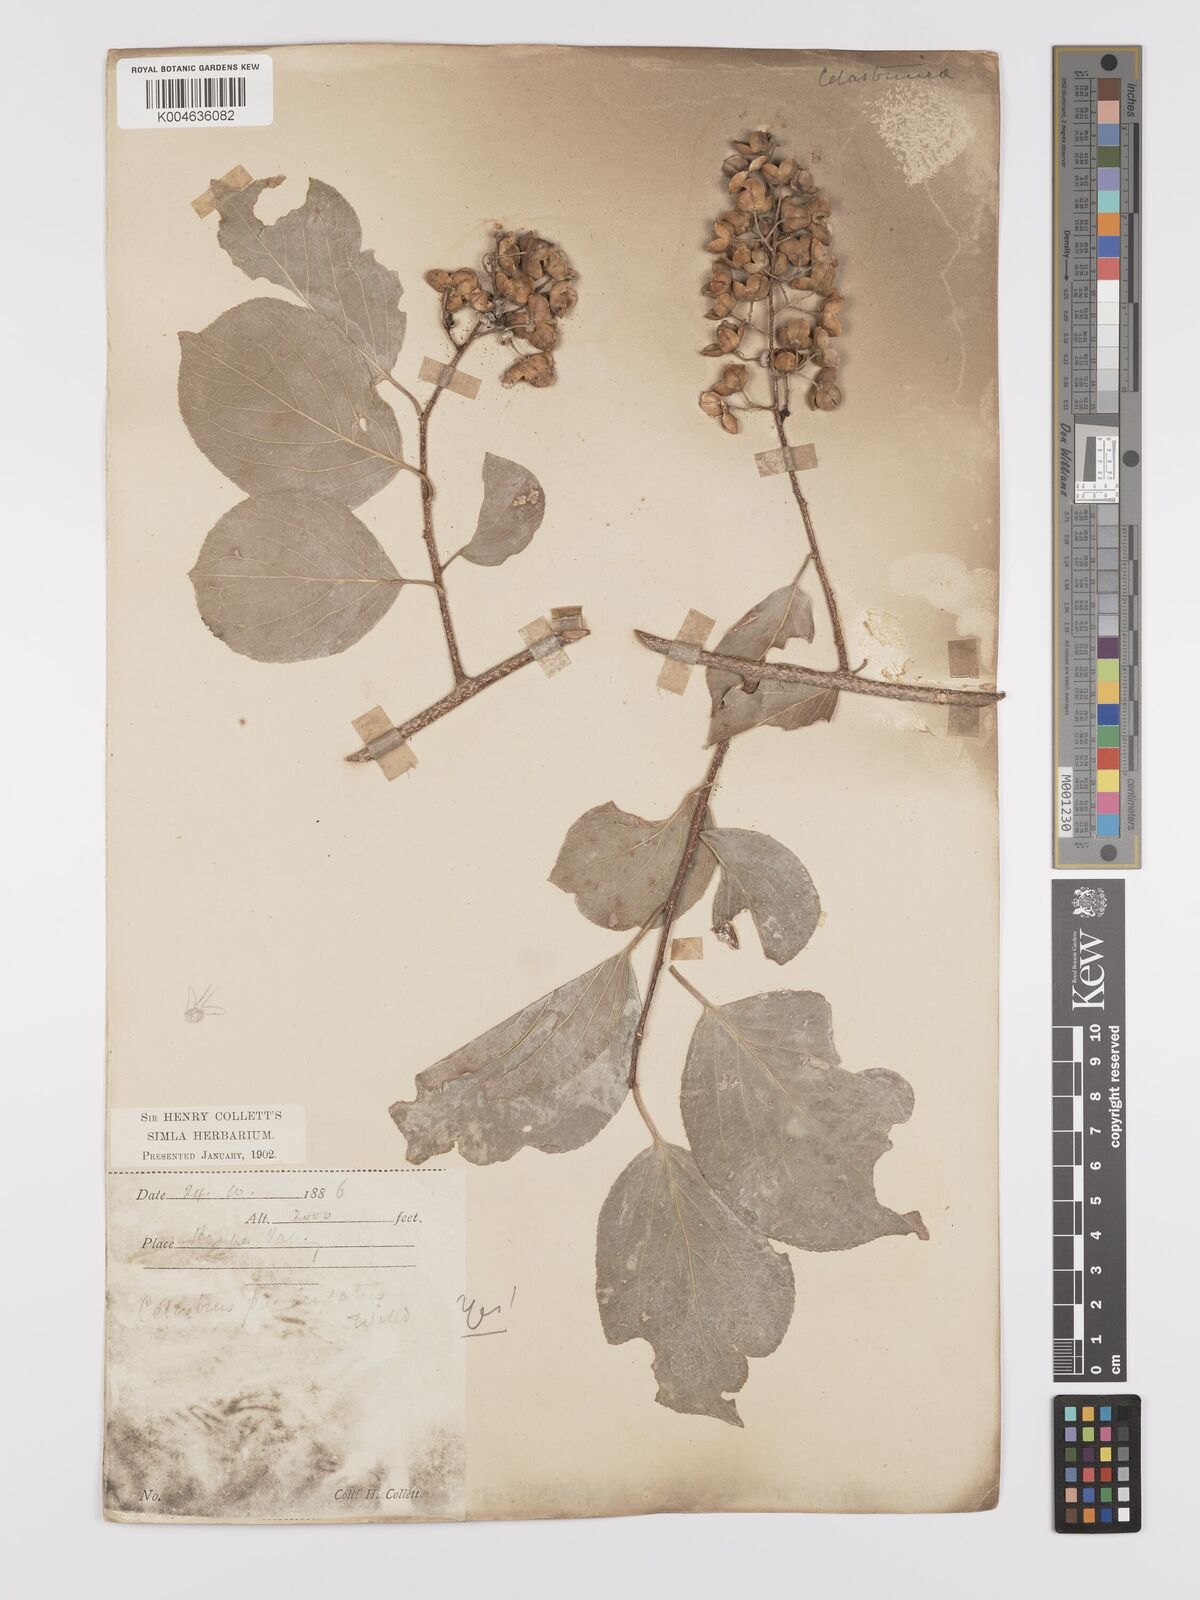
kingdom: Plantae
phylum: Tracheophyta
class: Magnoliopsida
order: Celastrales
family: Celastraceae
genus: Celastrus
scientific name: Celastrus paniculatus
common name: Oriental bittersweet; staff vine
